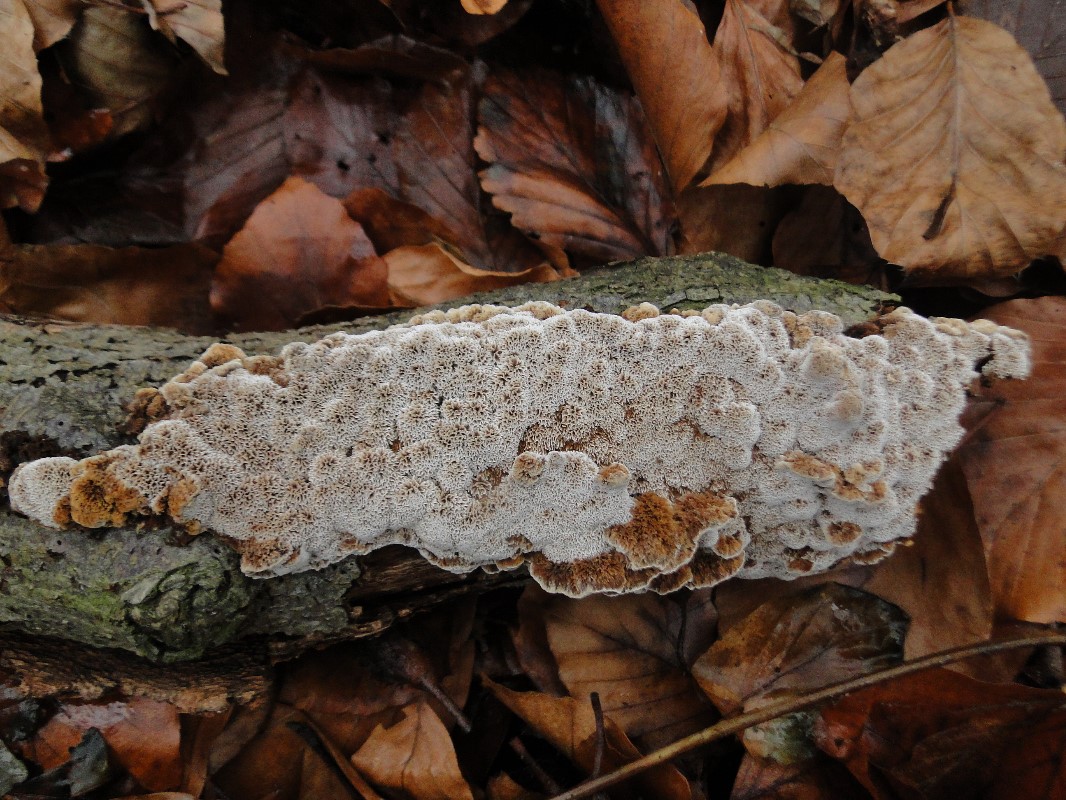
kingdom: Fungi
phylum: Basidiomycota
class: Agaricomycetes
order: Hymenochaetales
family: Hymenochaetaceae
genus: Mensularia
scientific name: Mensularia nodulosa
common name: bøge-spejlporesvamp
